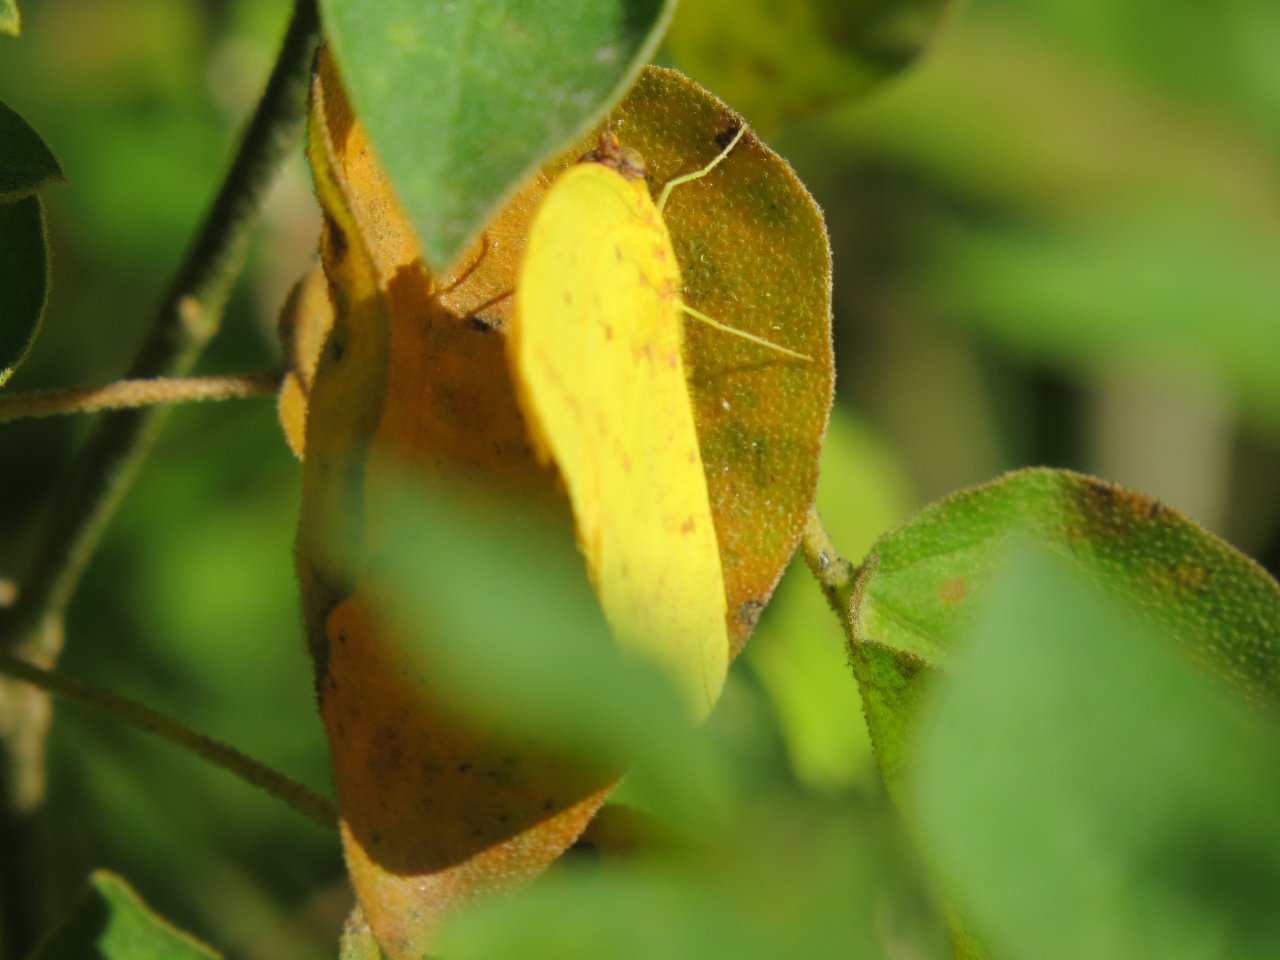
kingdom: Animalia
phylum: Arthropoda
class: Insecta
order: Lepidoptera
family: Pieridae
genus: Phoebis
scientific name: Phoebis agarithe
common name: Large Orange Sulphur
